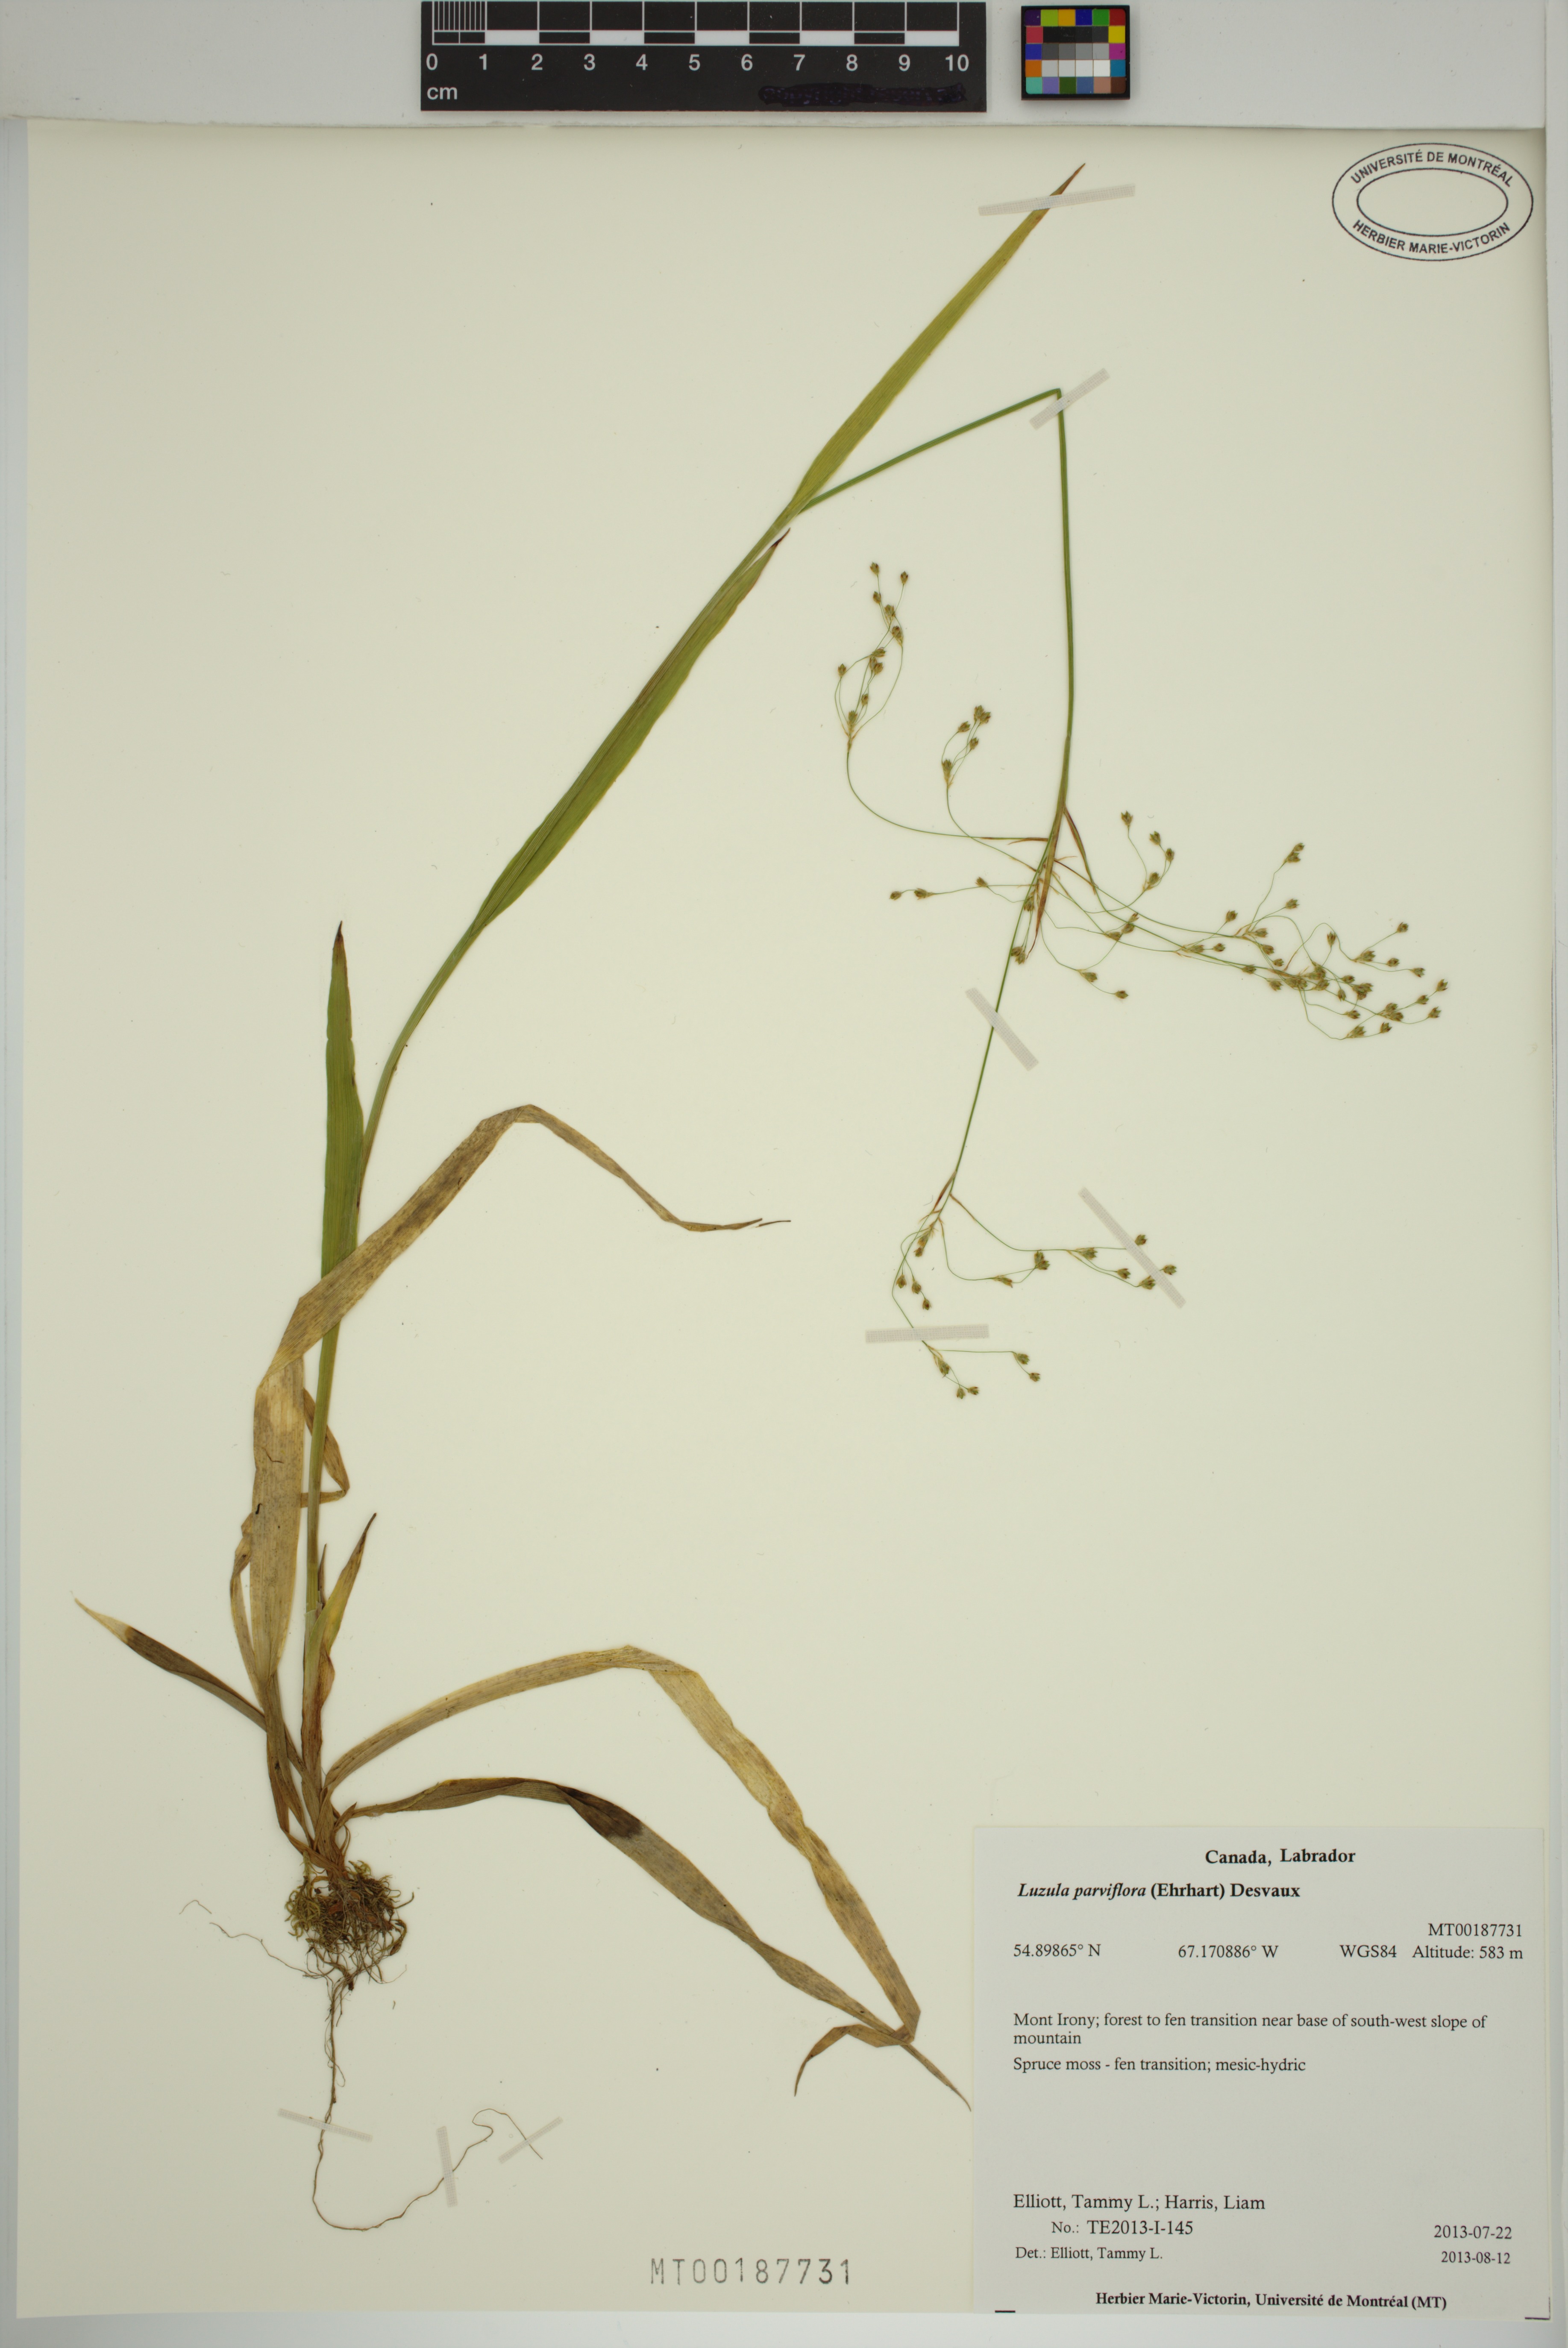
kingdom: Plantae
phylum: Tracheophyta
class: Liliopsida
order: Poales
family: Juncaceae
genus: Luzula
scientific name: Luzula parviflora
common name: Millet woodrush
